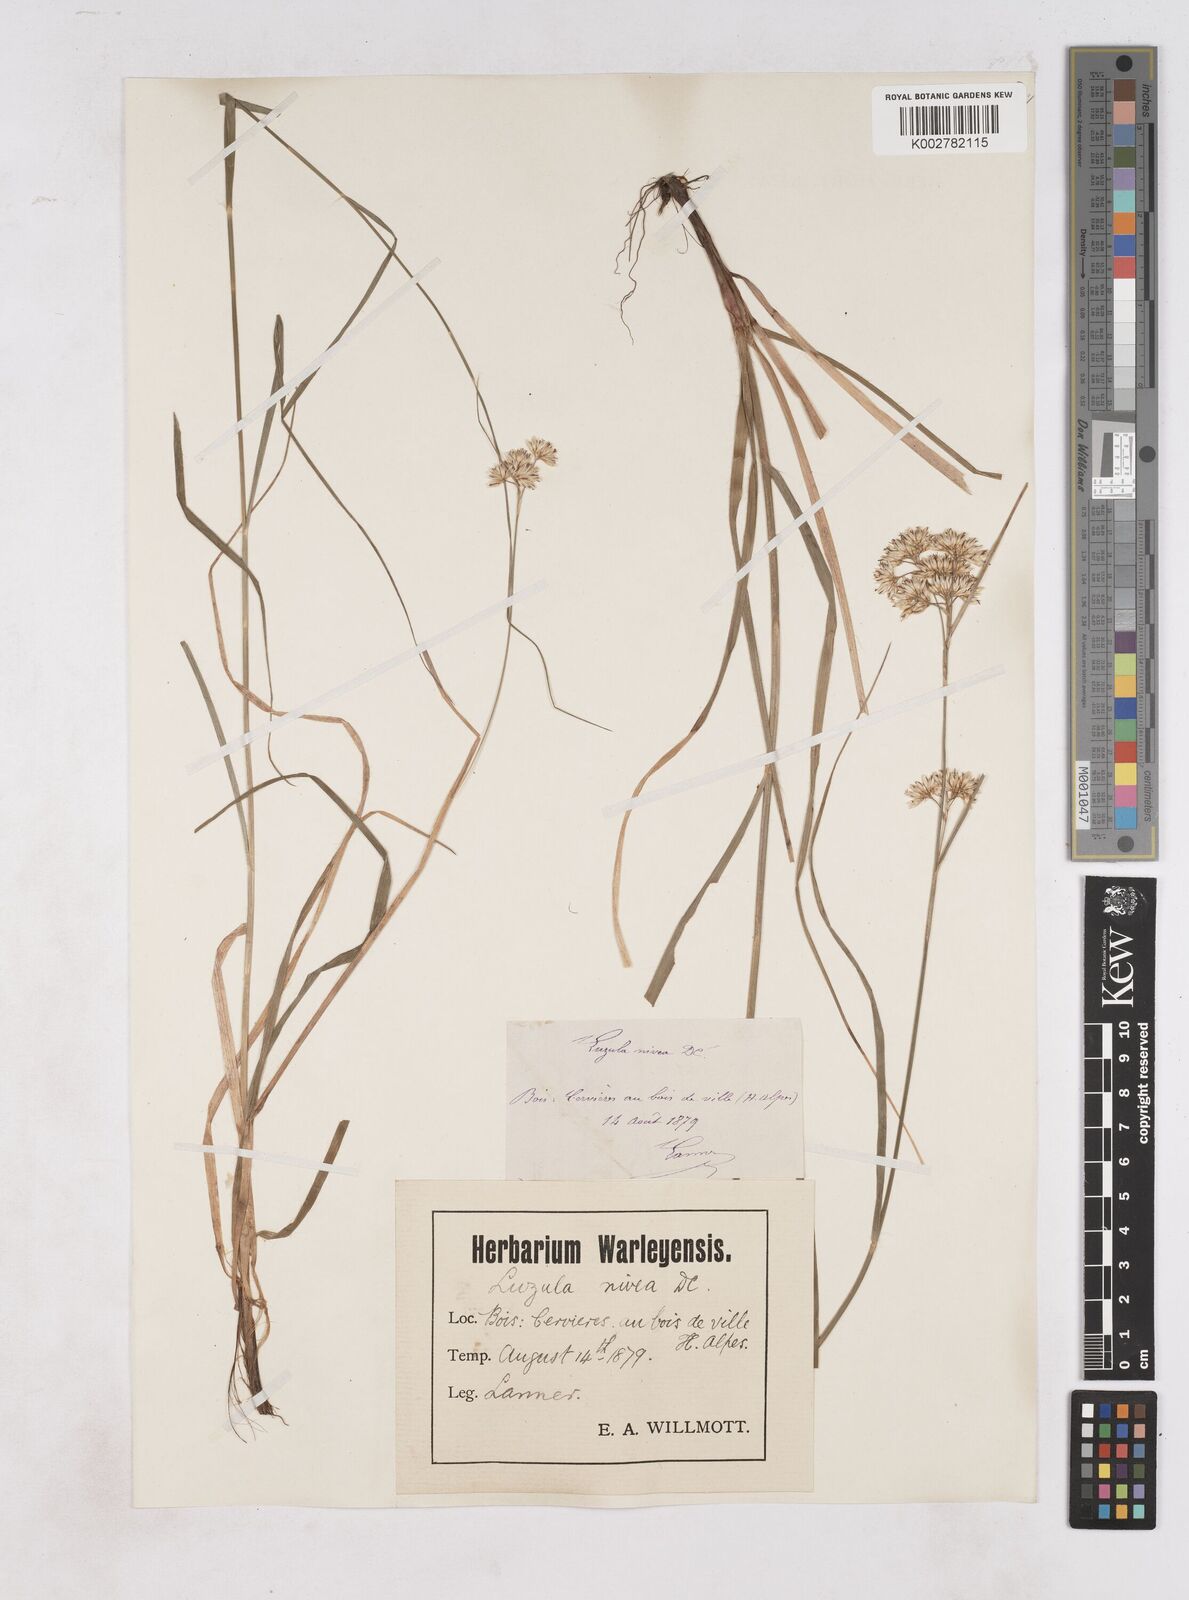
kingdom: Plantae
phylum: Tracheophyta
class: Liliopsida
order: Poales
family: Juncaceae
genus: Luzula
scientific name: Luzula nivea
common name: Snow-white wood-rush
